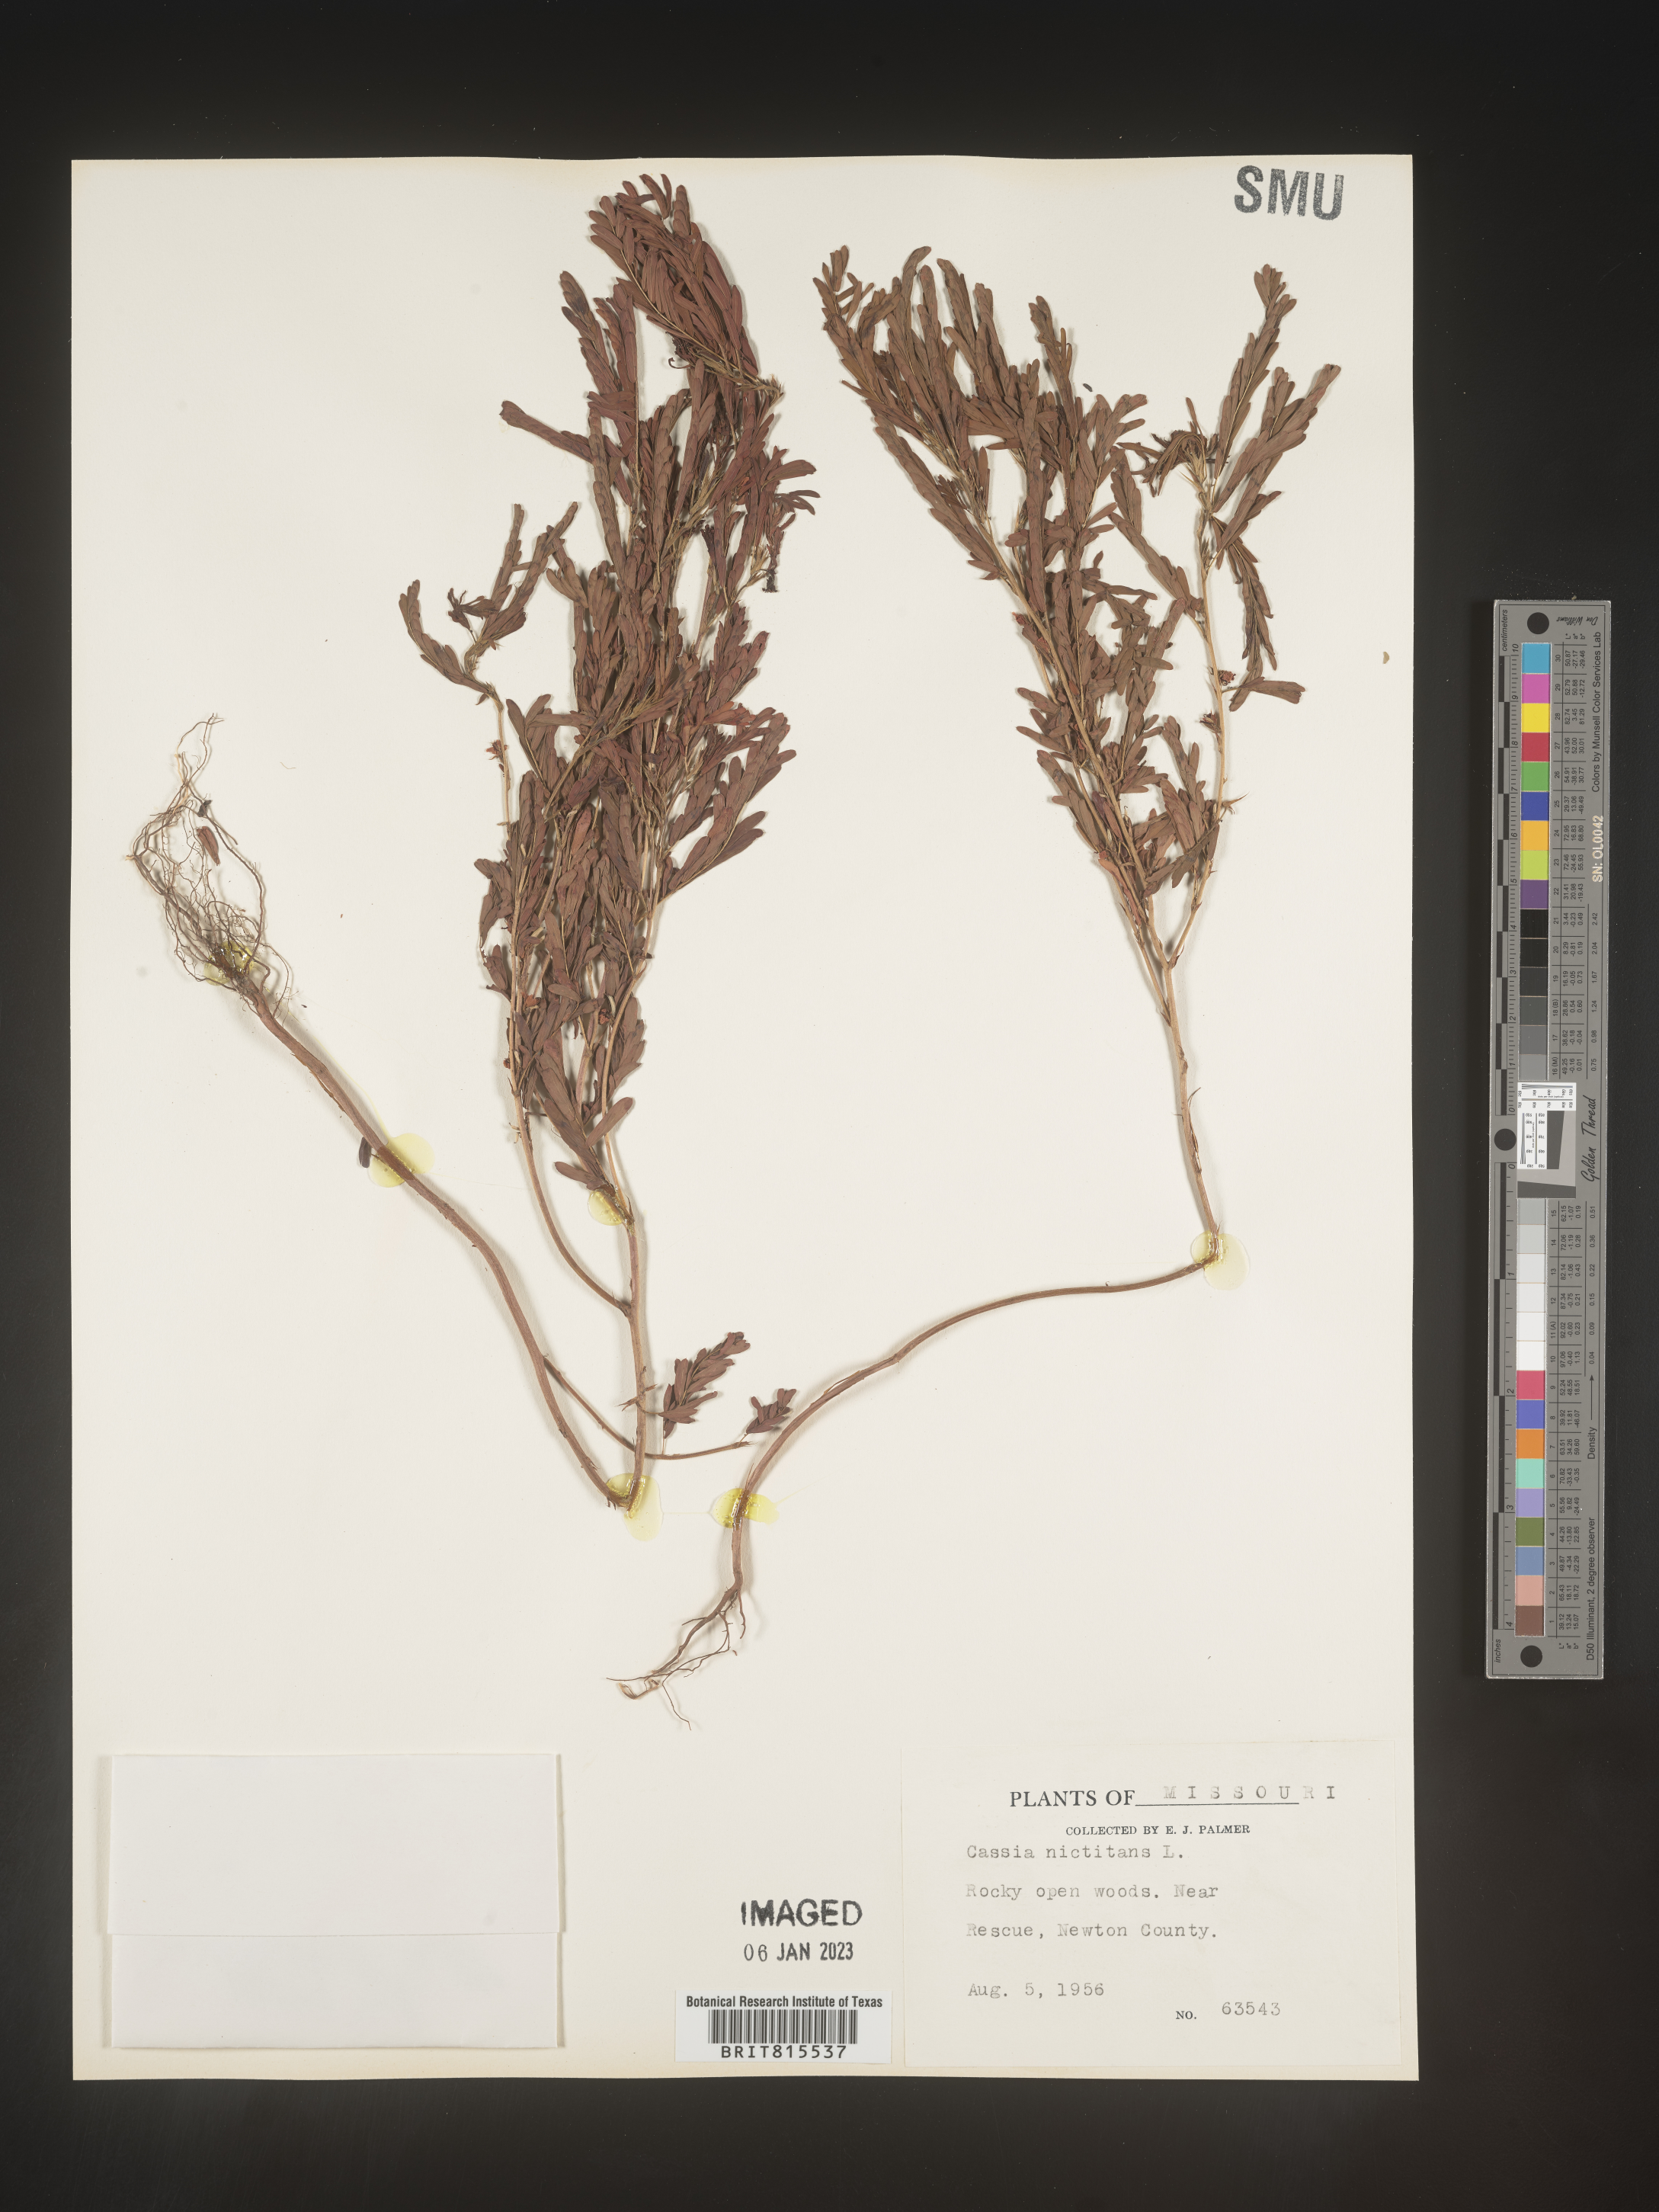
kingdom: Plantae
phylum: Tracheophyta
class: Magnoliopsida
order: Fabales
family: Fabaceae
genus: Chamaecrista
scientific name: Chamaecrista nictitans
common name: Sensitive cassia
